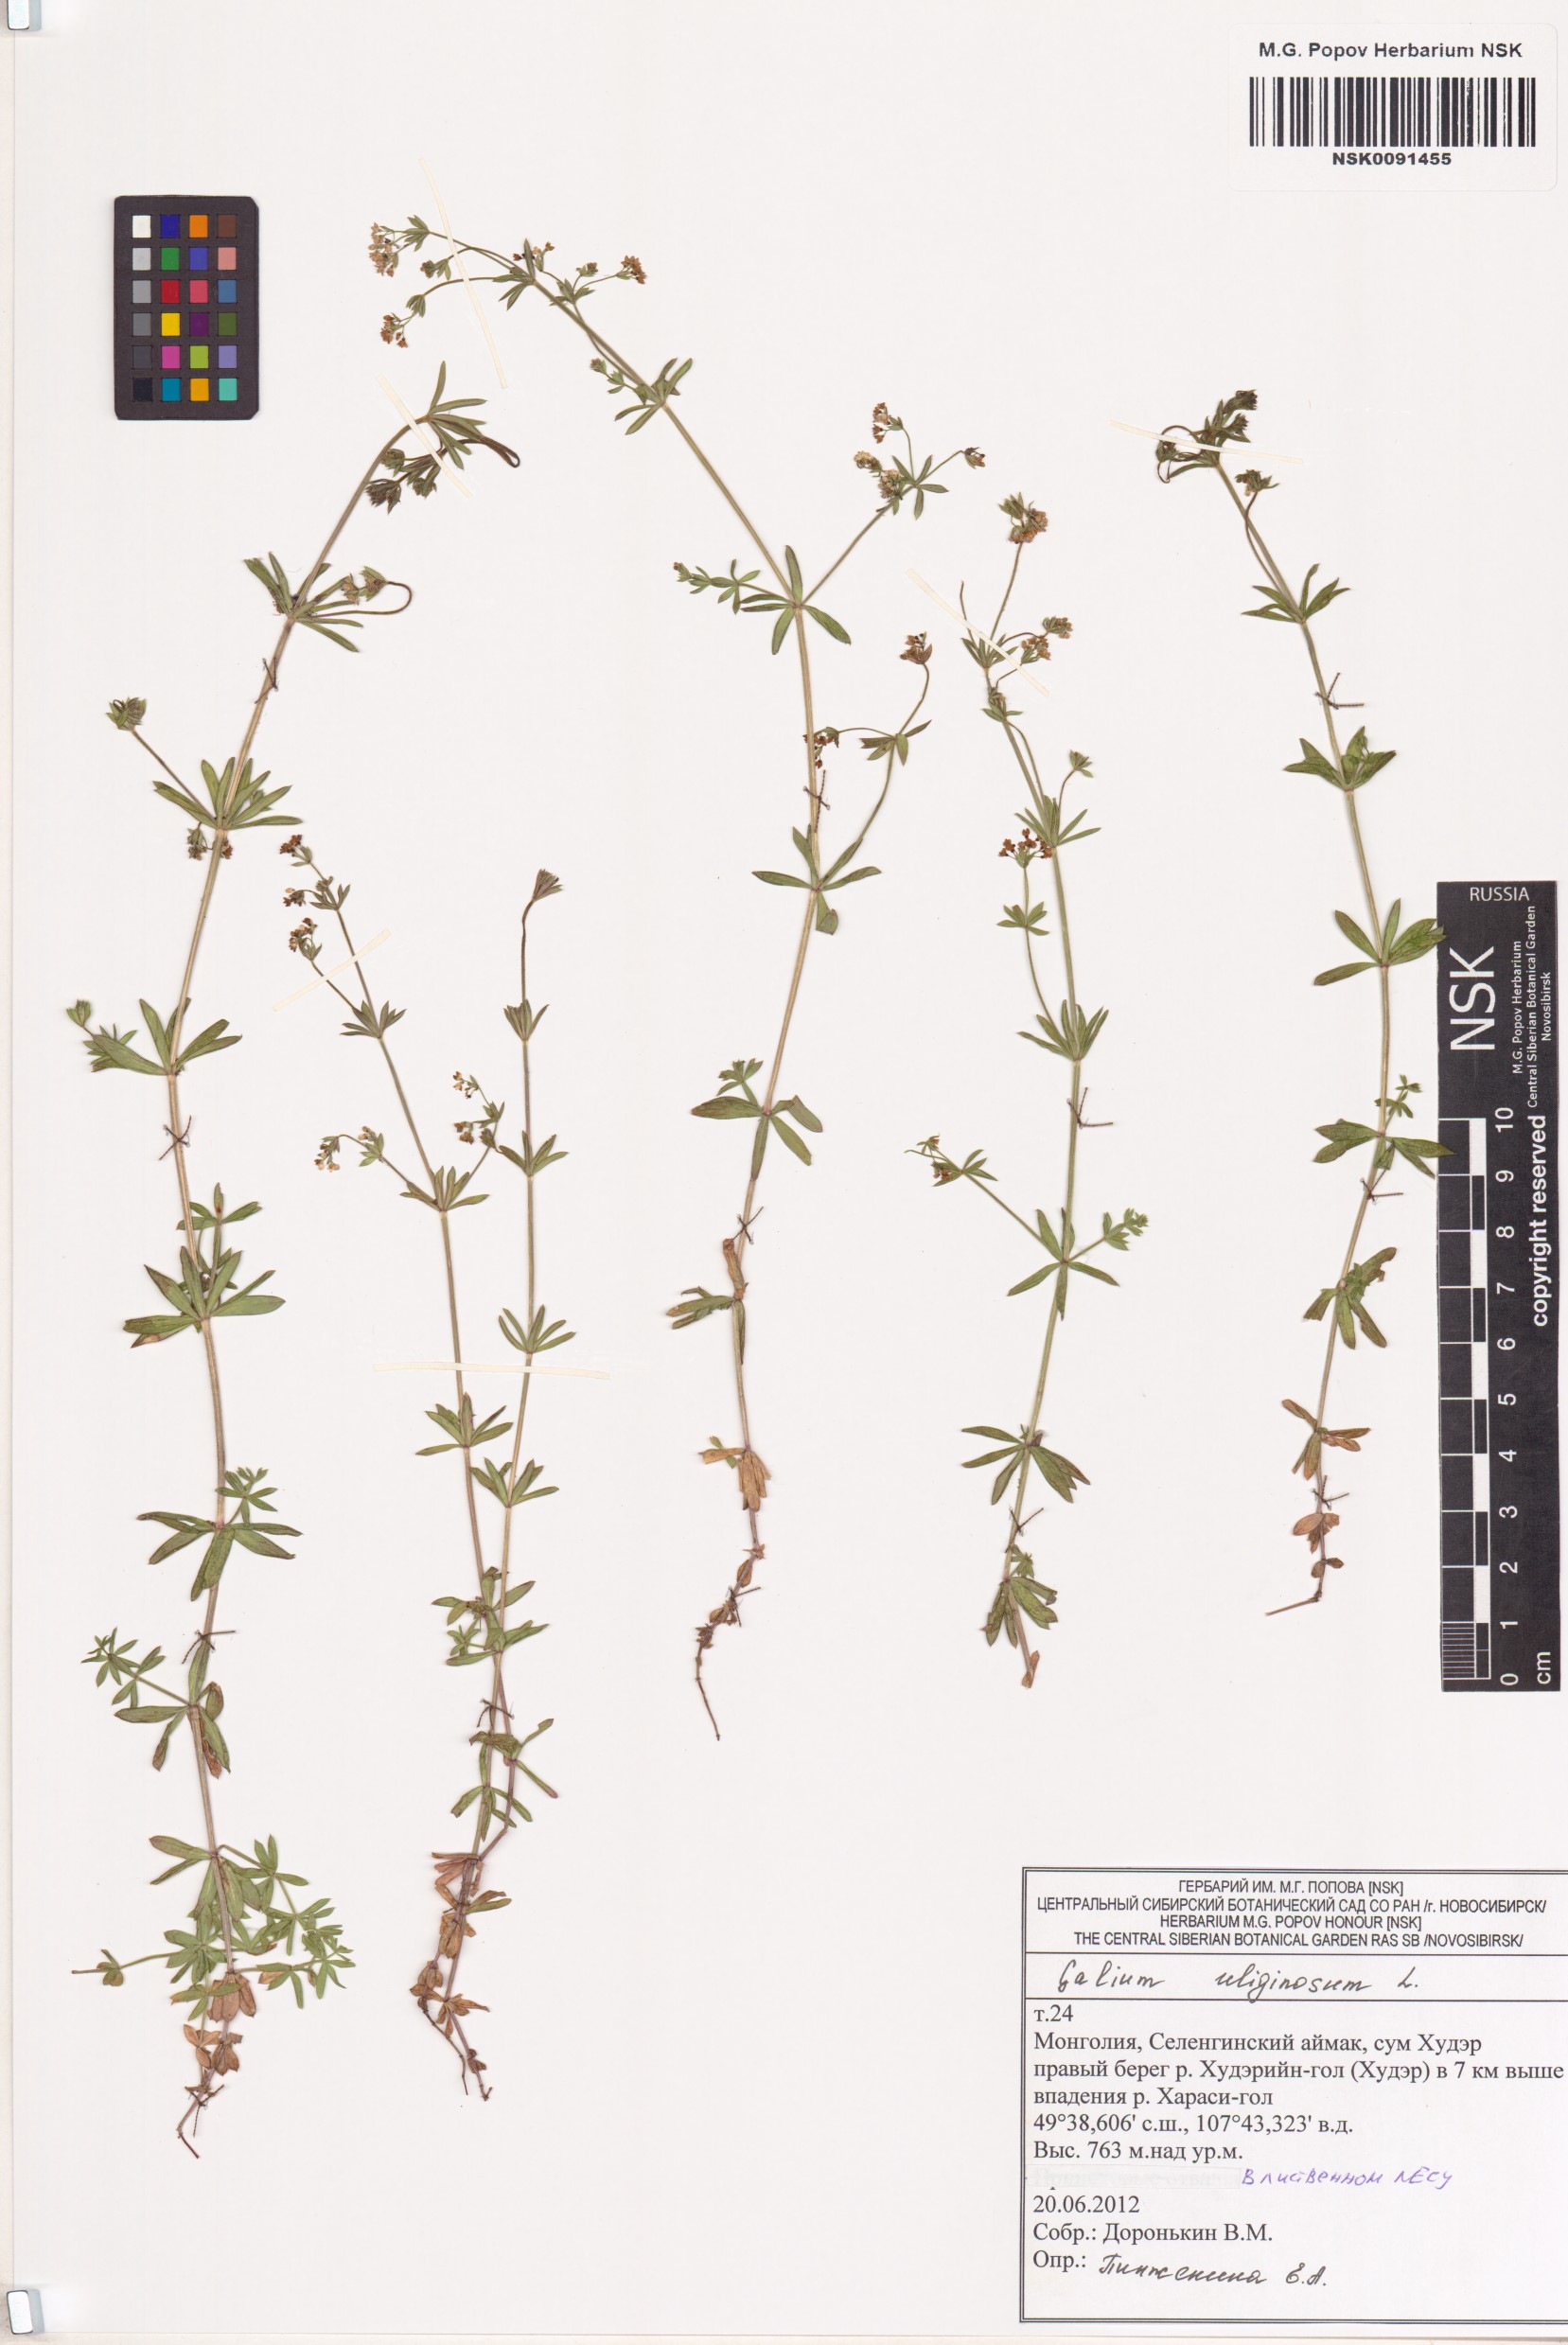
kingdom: Plantae
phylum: Tracheophyta
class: Magnoliopsida
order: Gentianales
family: Rubiaceae
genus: Galium
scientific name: Galium uliginosum
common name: Fen bedstraw
